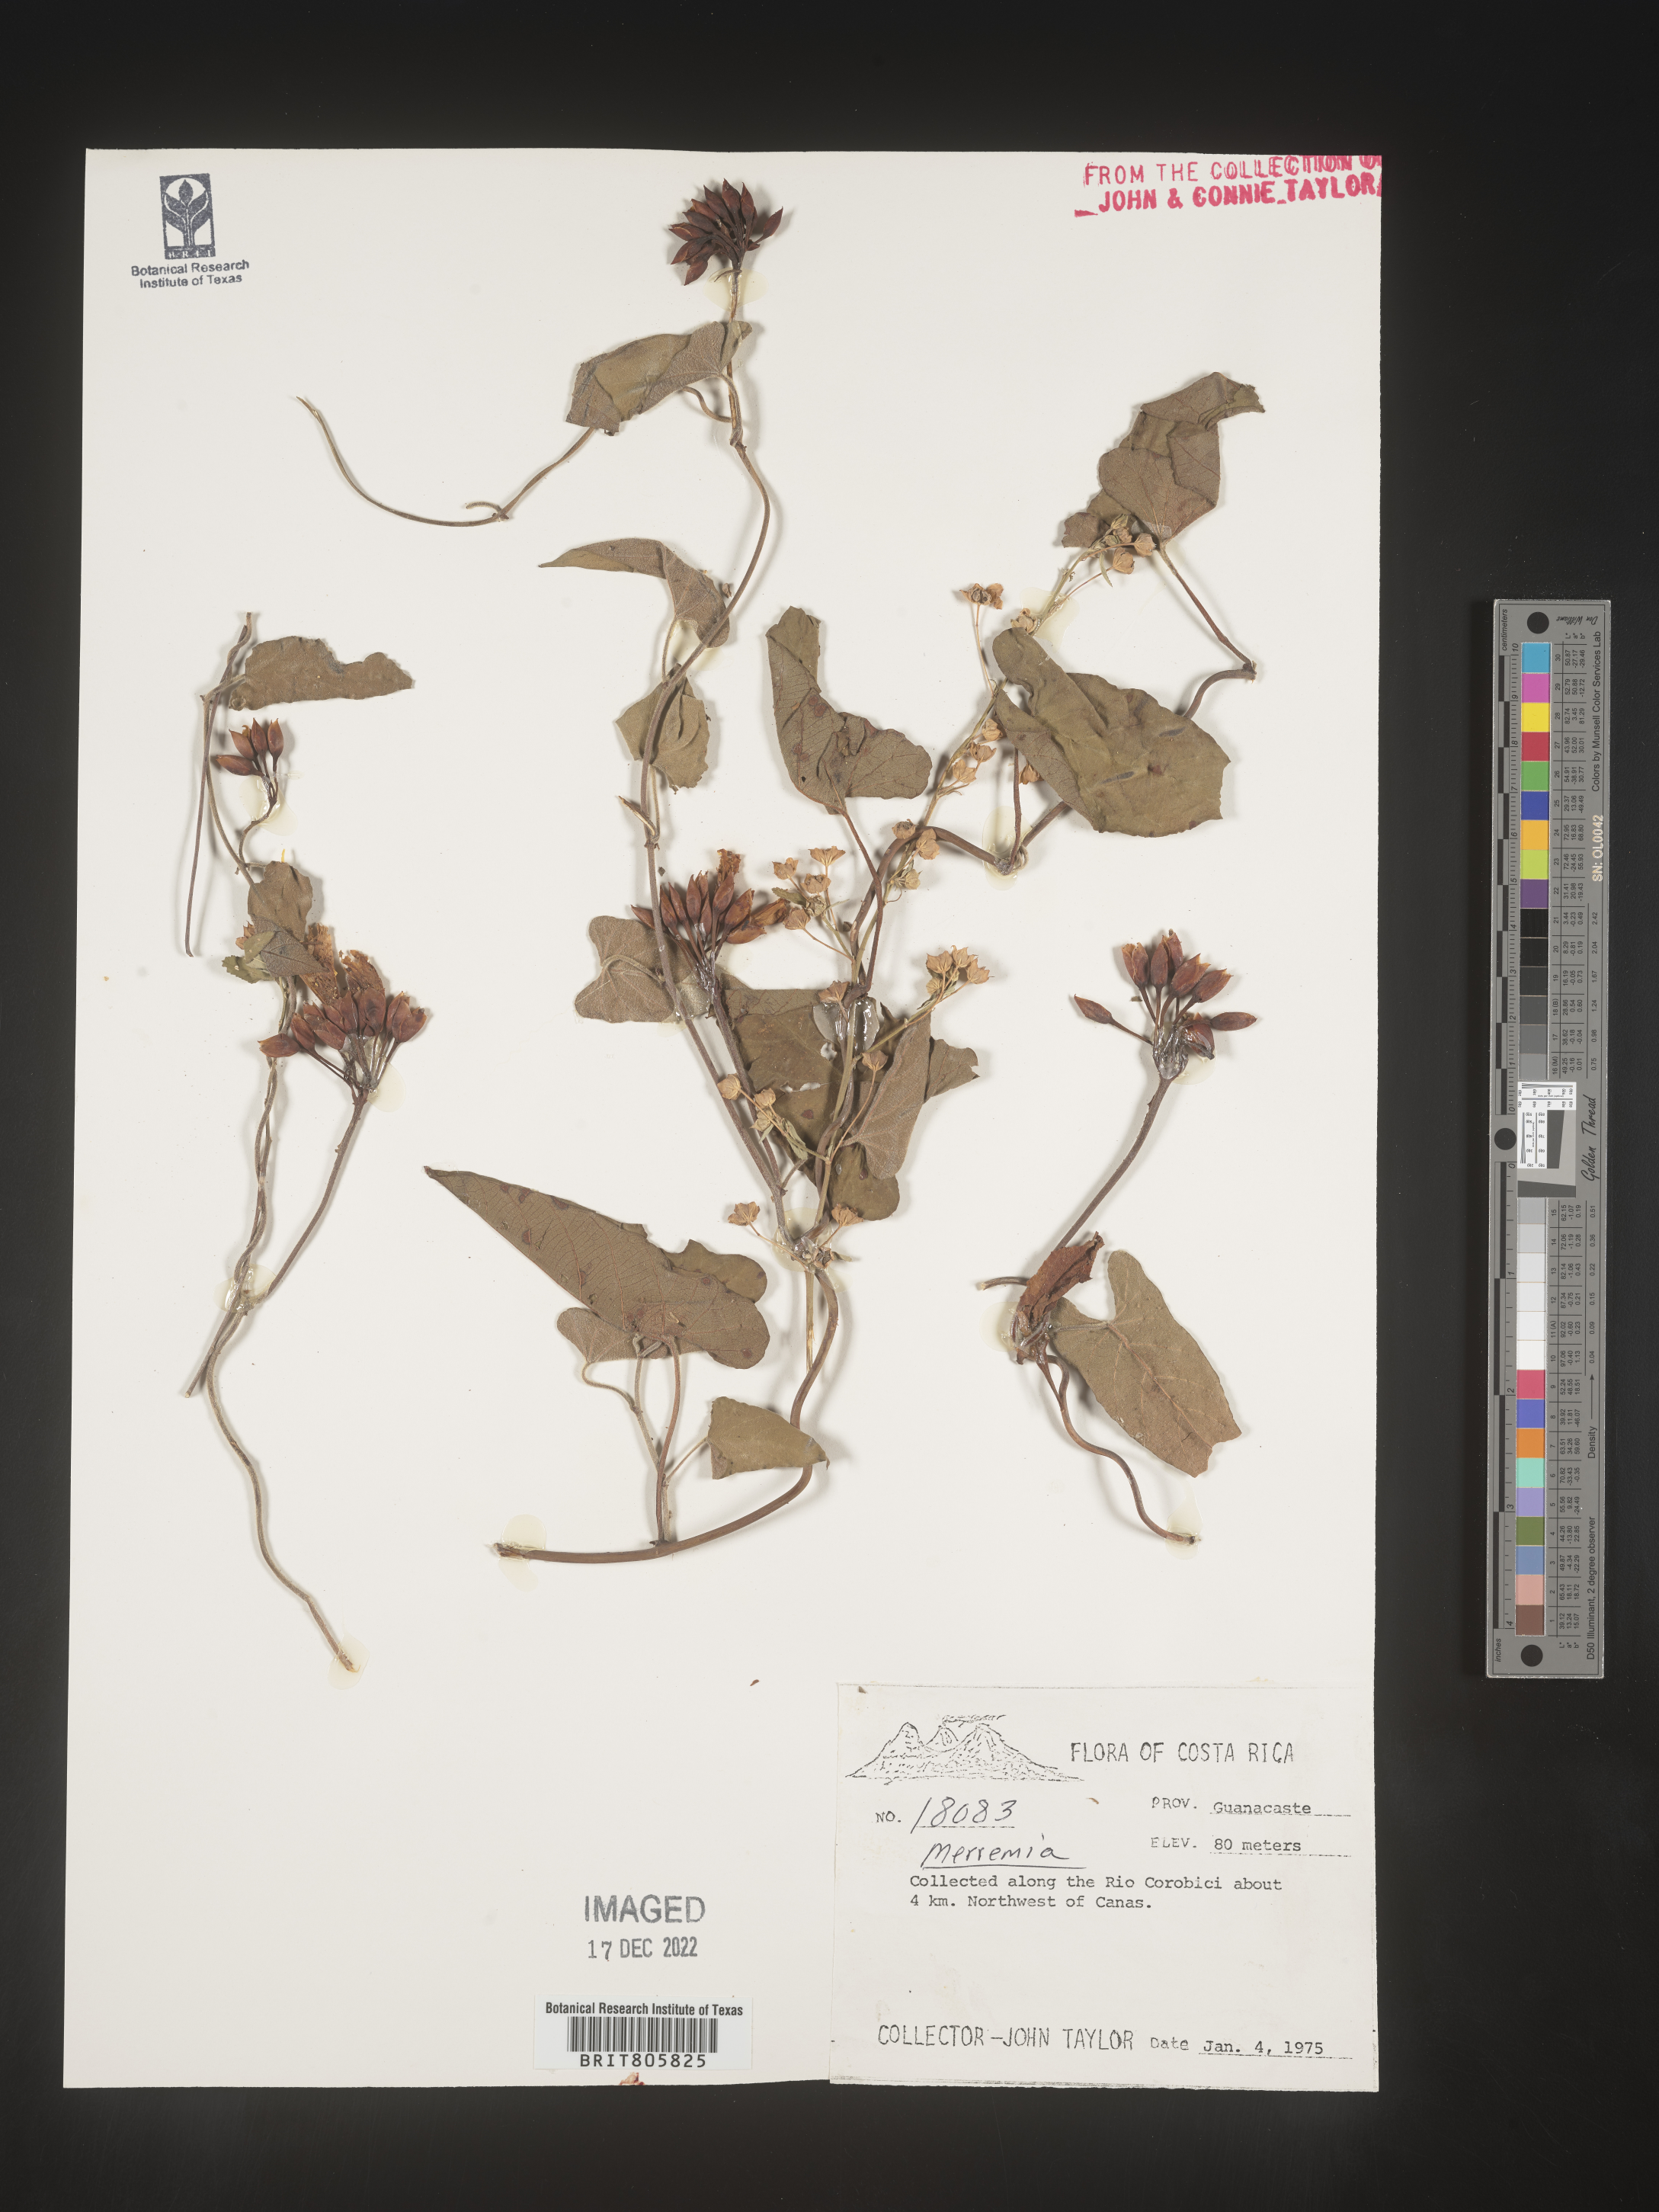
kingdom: Plantae
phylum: Tracheophyta
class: Magnoliopsida
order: Solanales
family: Convolvulaceae
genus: Merremia
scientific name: Merremia
